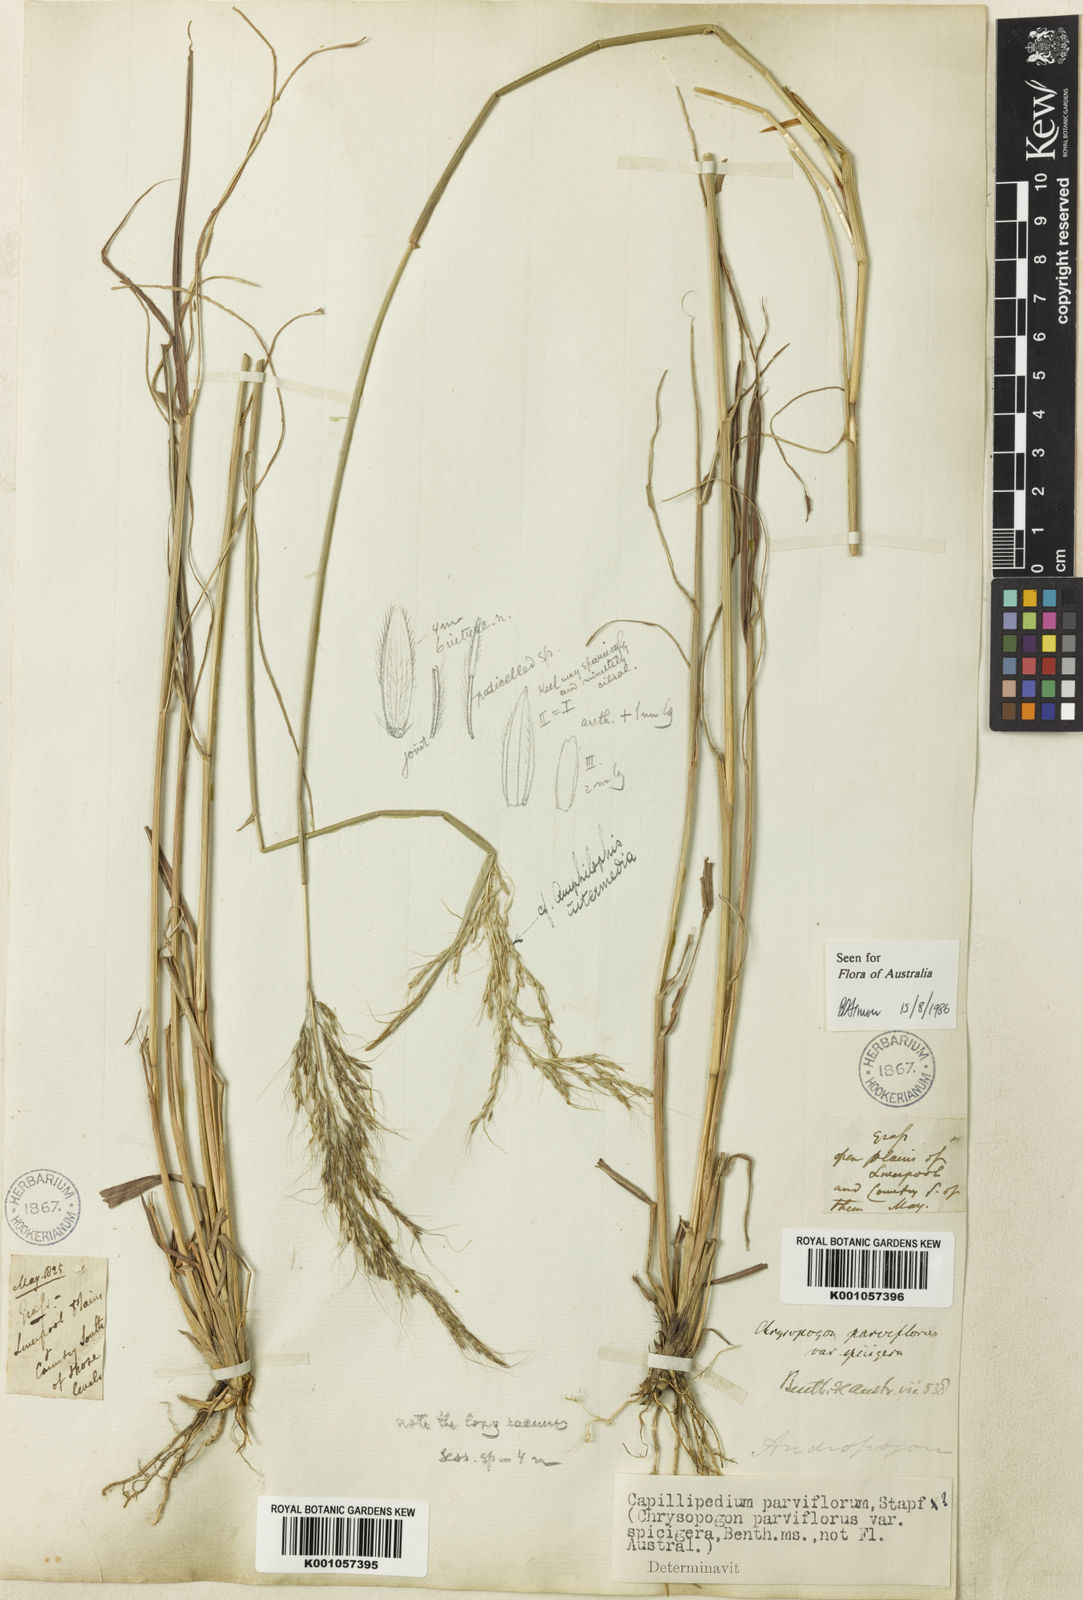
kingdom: Plantae
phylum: Tracheophyta
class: Liliopsida
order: Poales
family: Poaceae
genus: Capillipedium
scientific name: Capillipedium spicigerum
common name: Scented-top grass
